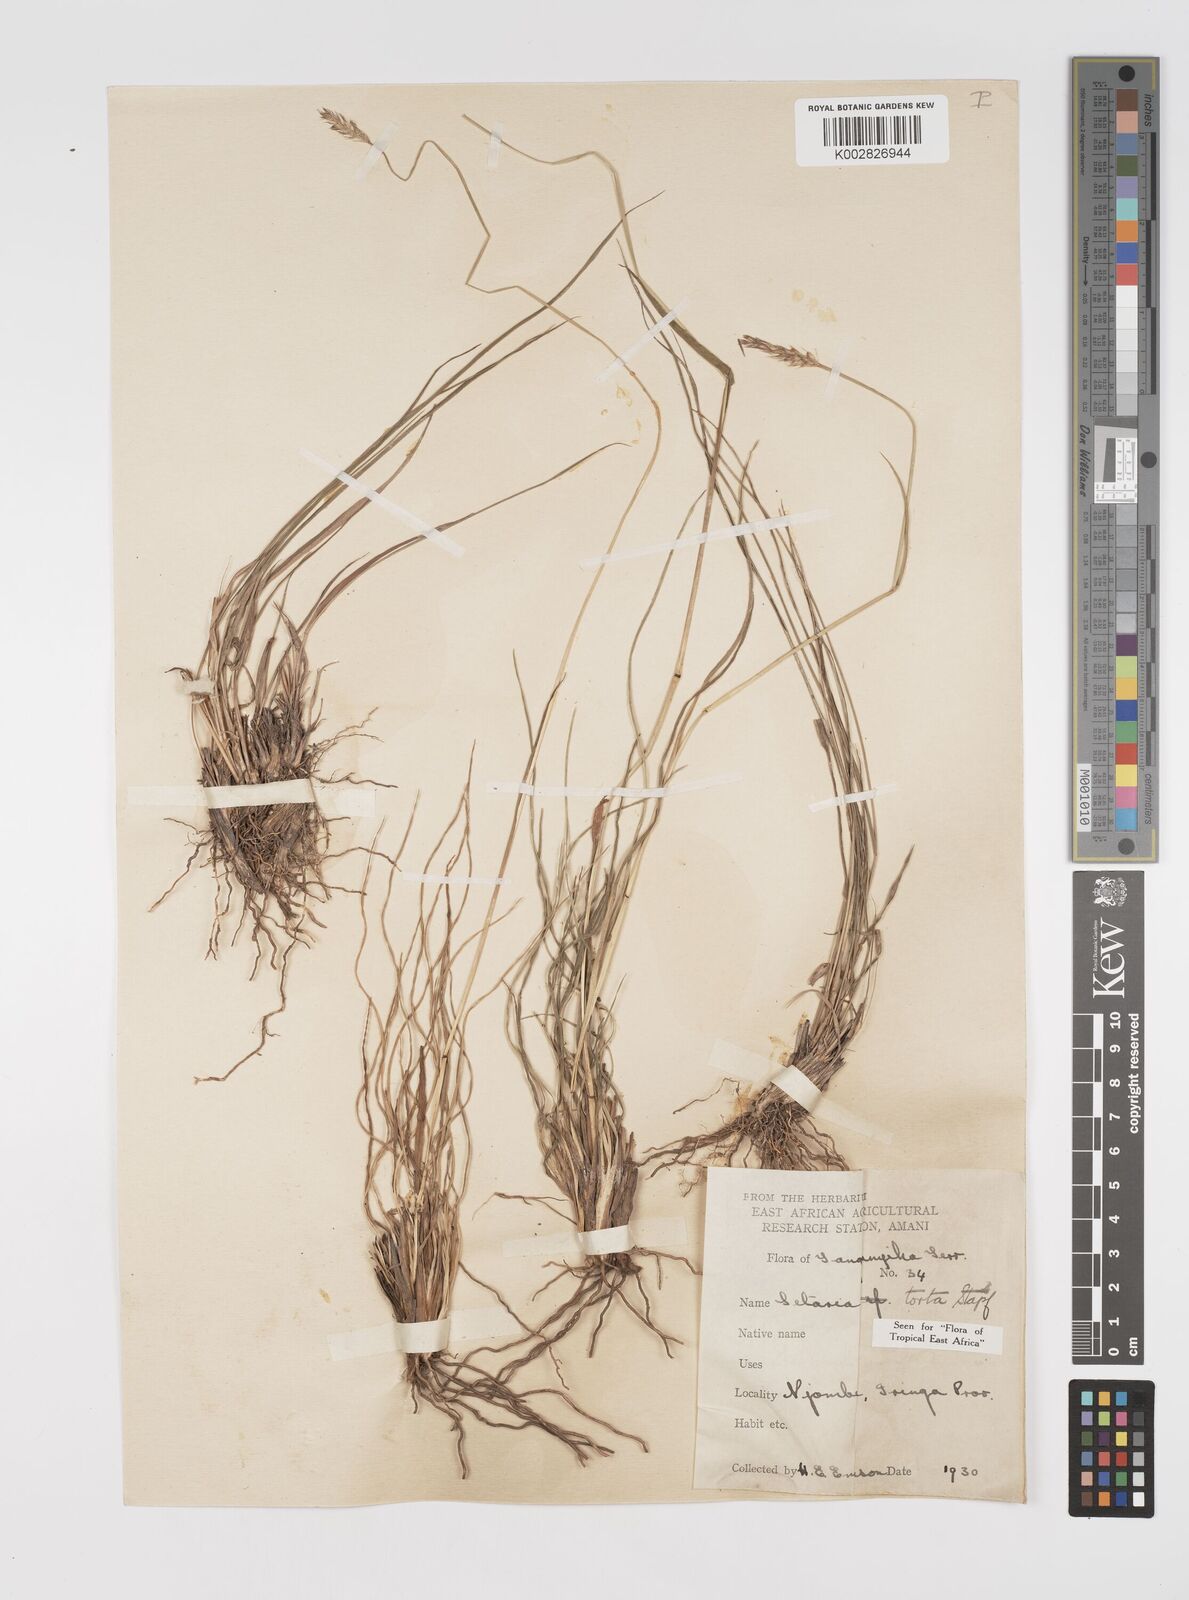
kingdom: Plantae
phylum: Tracheophyta
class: Liliopsida
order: Poales
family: Poaceae
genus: Setaria
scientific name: Setaria sphacelata
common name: African bristlegrass
